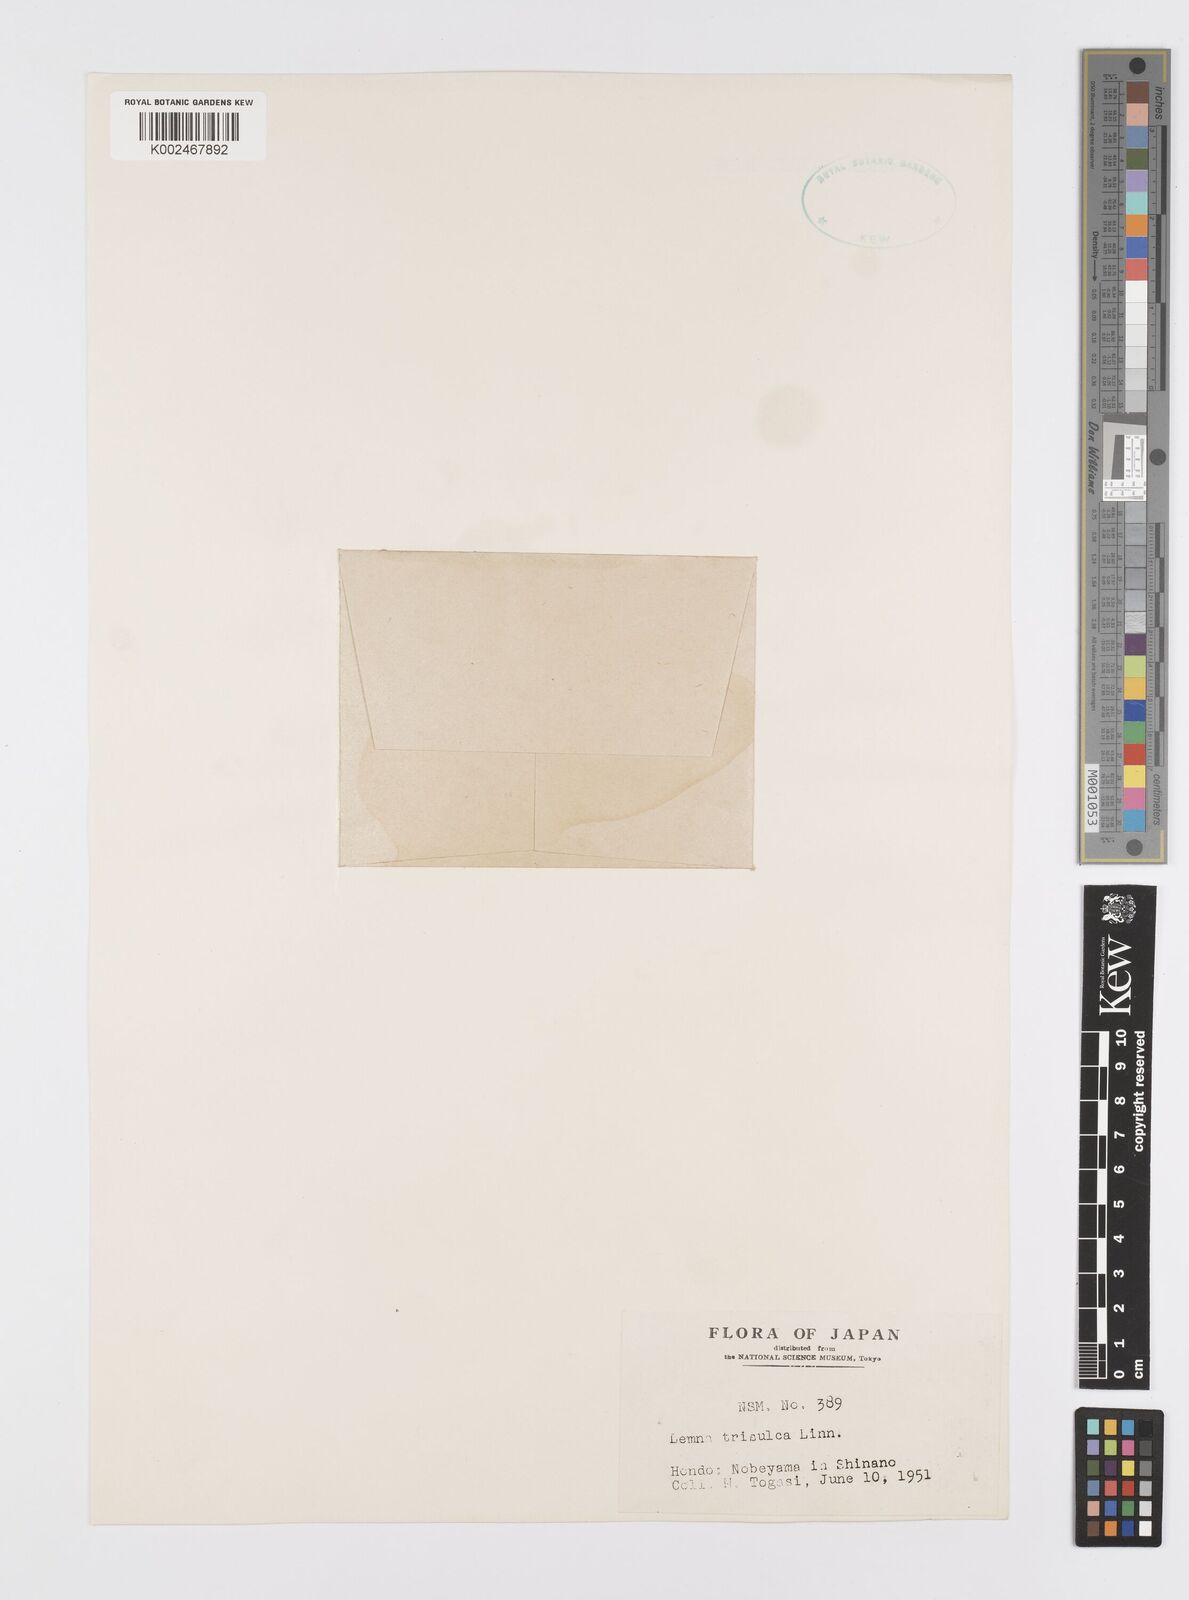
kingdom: Plantae
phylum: Tracheophyta
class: Liliopsida
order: Alismatales
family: Araceae
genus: Lemna
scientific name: Lemna trisulca
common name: Ivy-leaved duckweed
